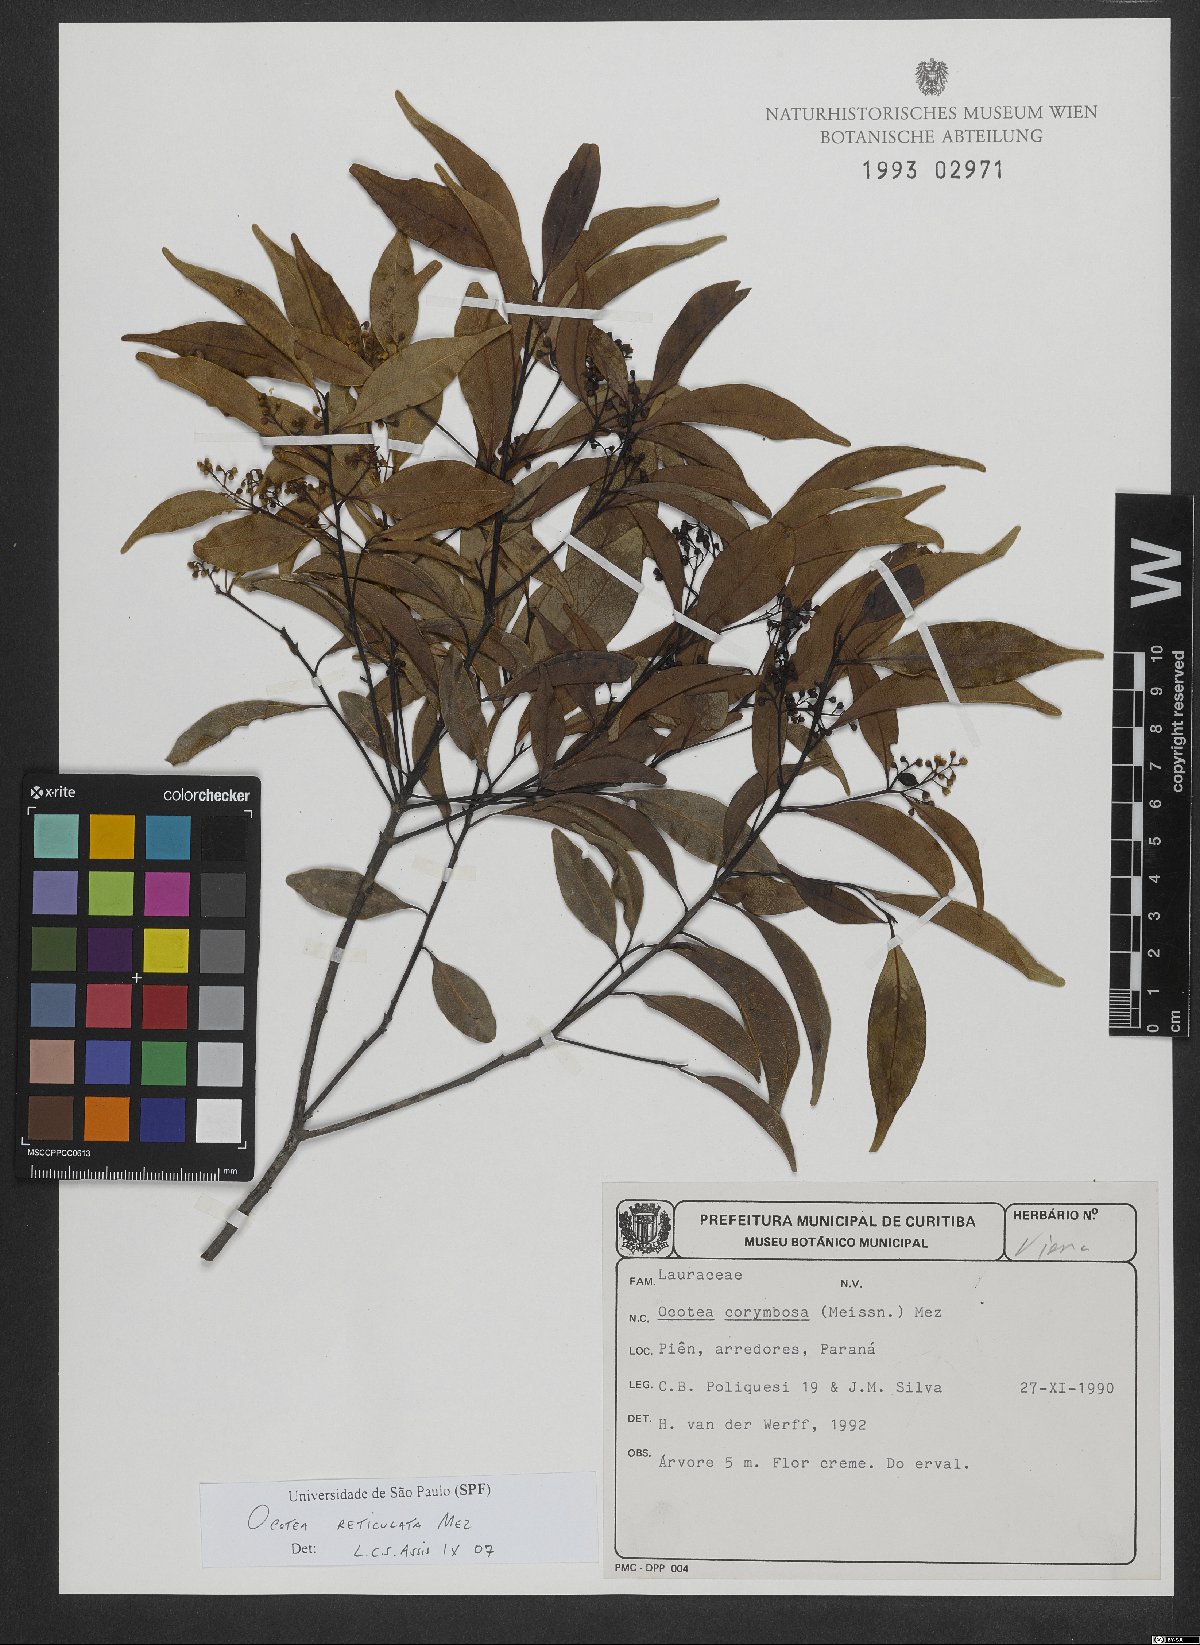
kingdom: Plantae
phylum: Tracheophyta
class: Magnoliopsida
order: Laurales
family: Lauraceae
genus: Mespilodaphne
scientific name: Mespilodaphne corymbosa
